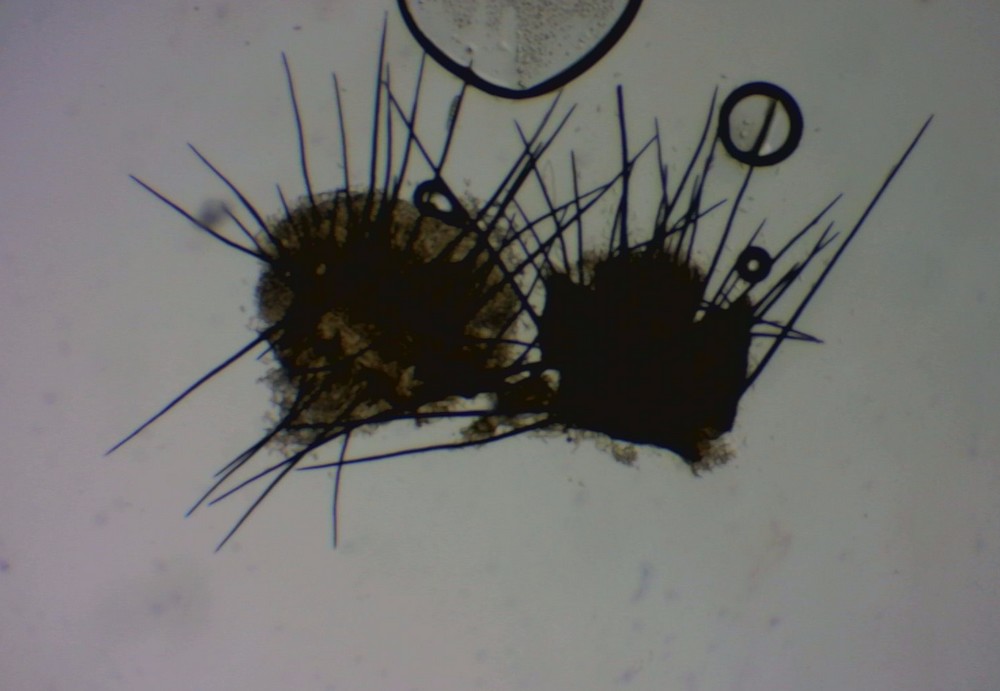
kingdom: Fungi
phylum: Ascomycota
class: Sordariomycetes
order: Chaetosphaeriales
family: Chaetosphaeriaceae
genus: Pseudolachnea
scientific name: Pseudolachnea hispidula
